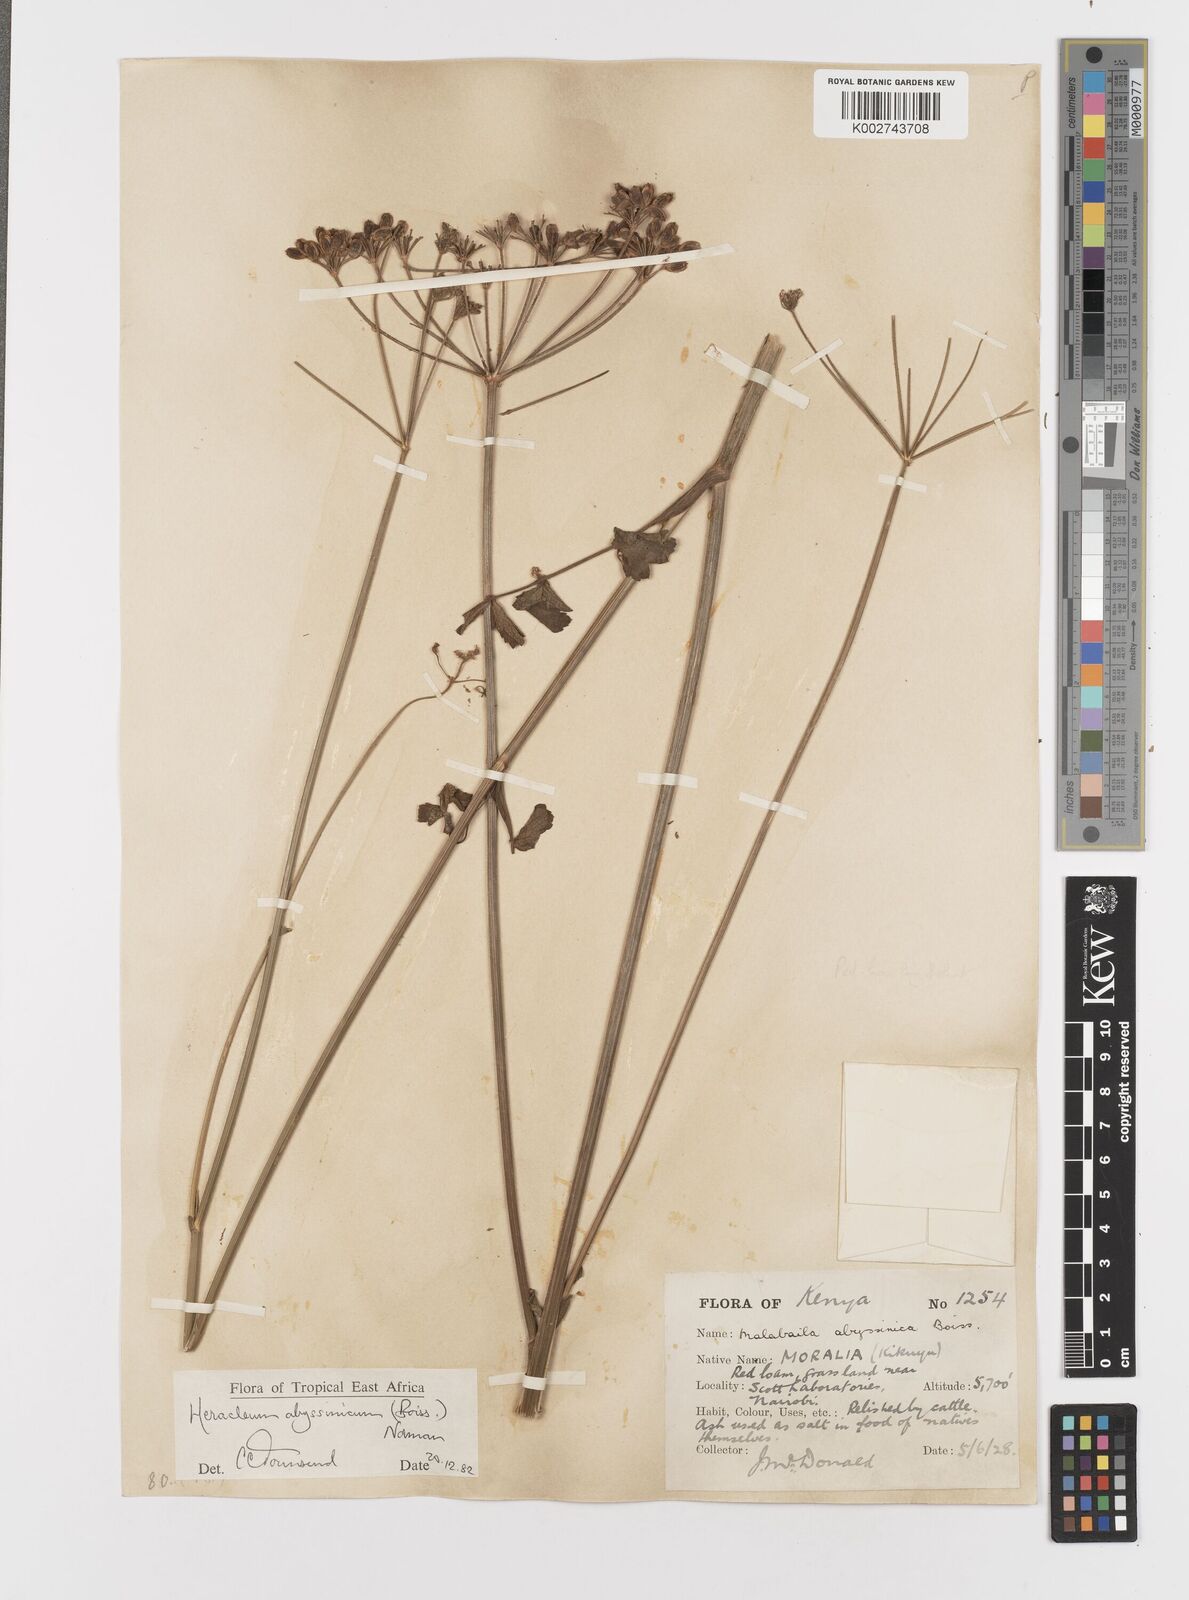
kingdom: Plantae
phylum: Tracheophyta
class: Magnoliopsida
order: Apiales
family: Apiaceae
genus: Heracleum
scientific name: Heracleum abyssinicum
